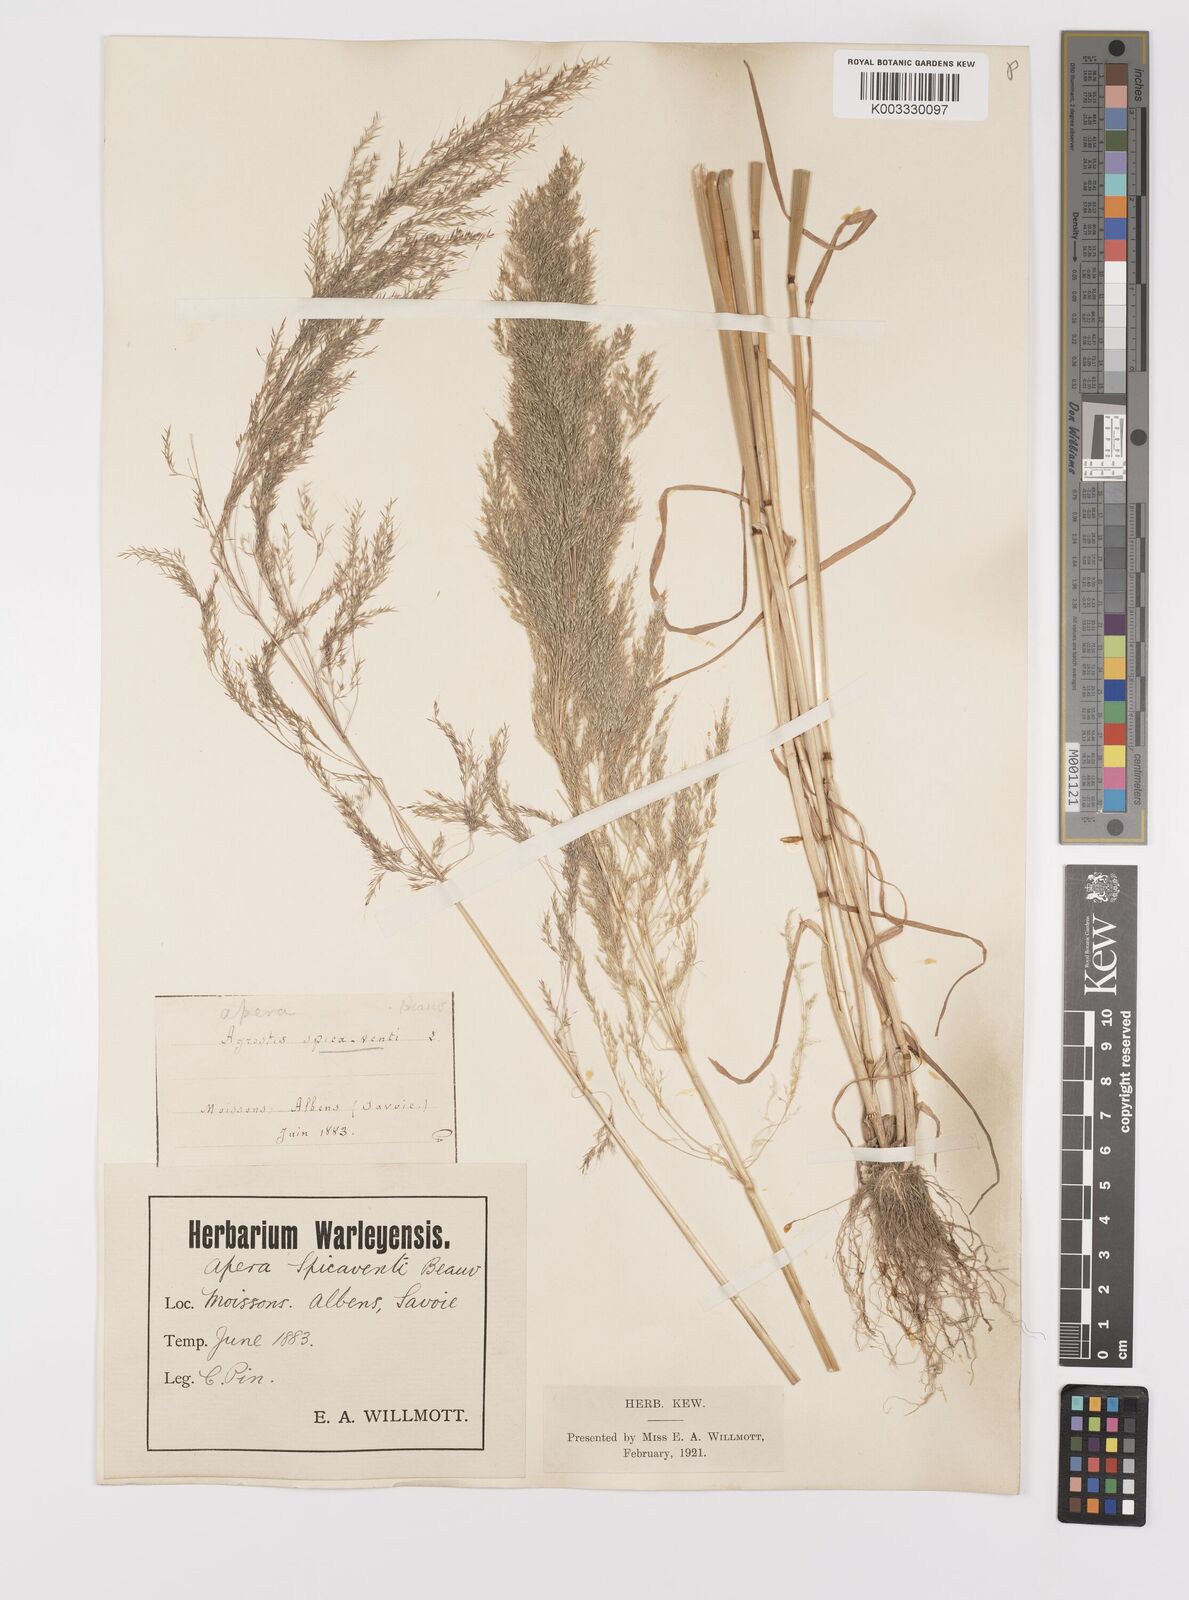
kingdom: Plantae
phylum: Tracheophyta
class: Liliopsida
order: Poales
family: Poaceae
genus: Apera
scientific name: Apera spica-venti
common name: Loose silky-bent
